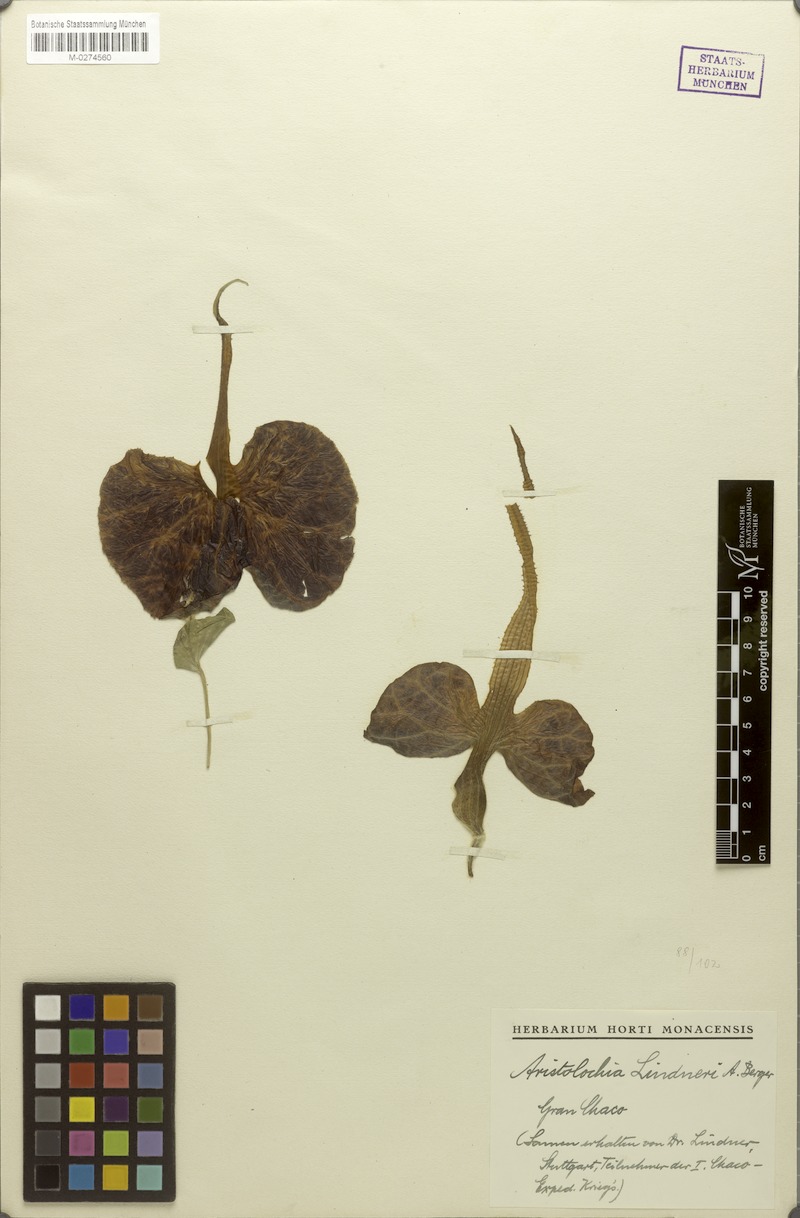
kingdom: Plantae
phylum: Tracheophyta
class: Magnoliopsida
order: Piperales
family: Aristolochiaceae
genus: Aristolochia
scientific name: Aristolochia lindneri
